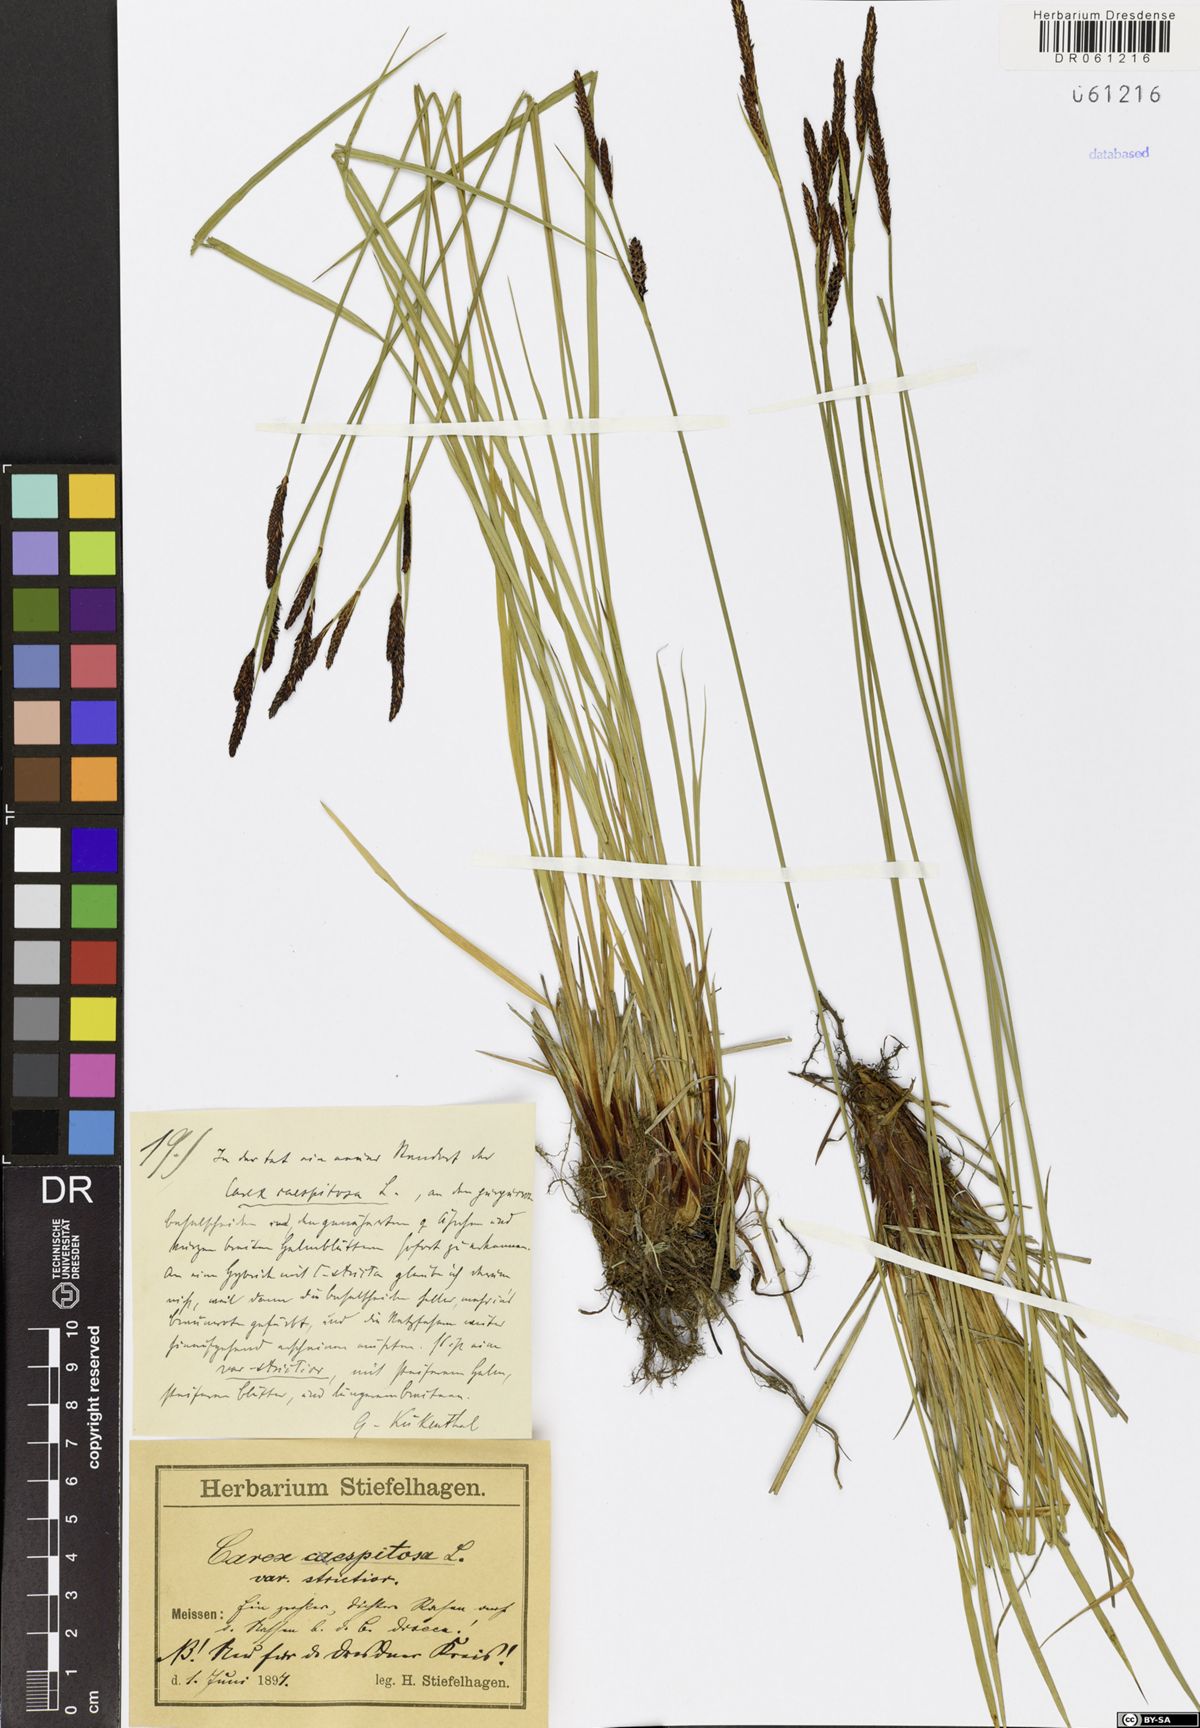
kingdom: Plantae
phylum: Tracheophyta
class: Liliopsida
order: Poales
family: Cyperaceae
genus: Carex
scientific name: Carex cespitosa
